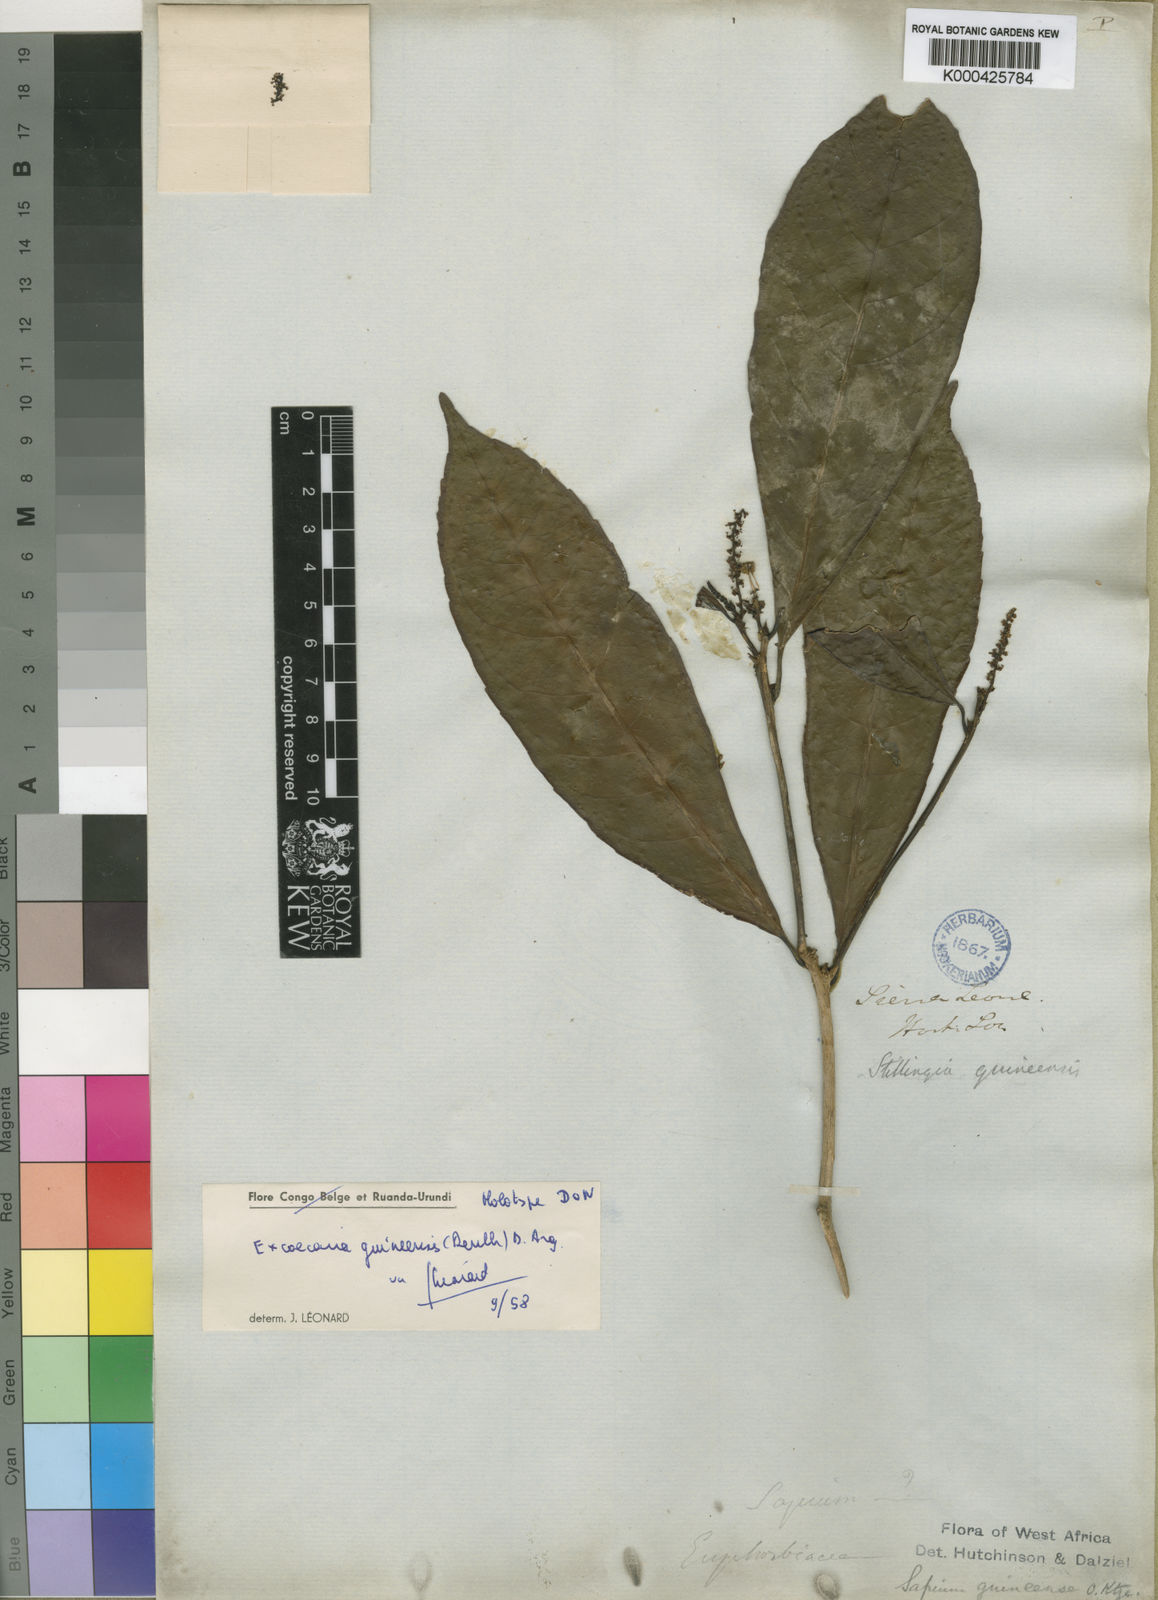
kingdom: Plantae
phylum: Tracheophyta
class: Magnoliopsida
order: Malpighiales
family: Euphorbiaceae
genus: Excoecaria
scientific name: Excoecaria
